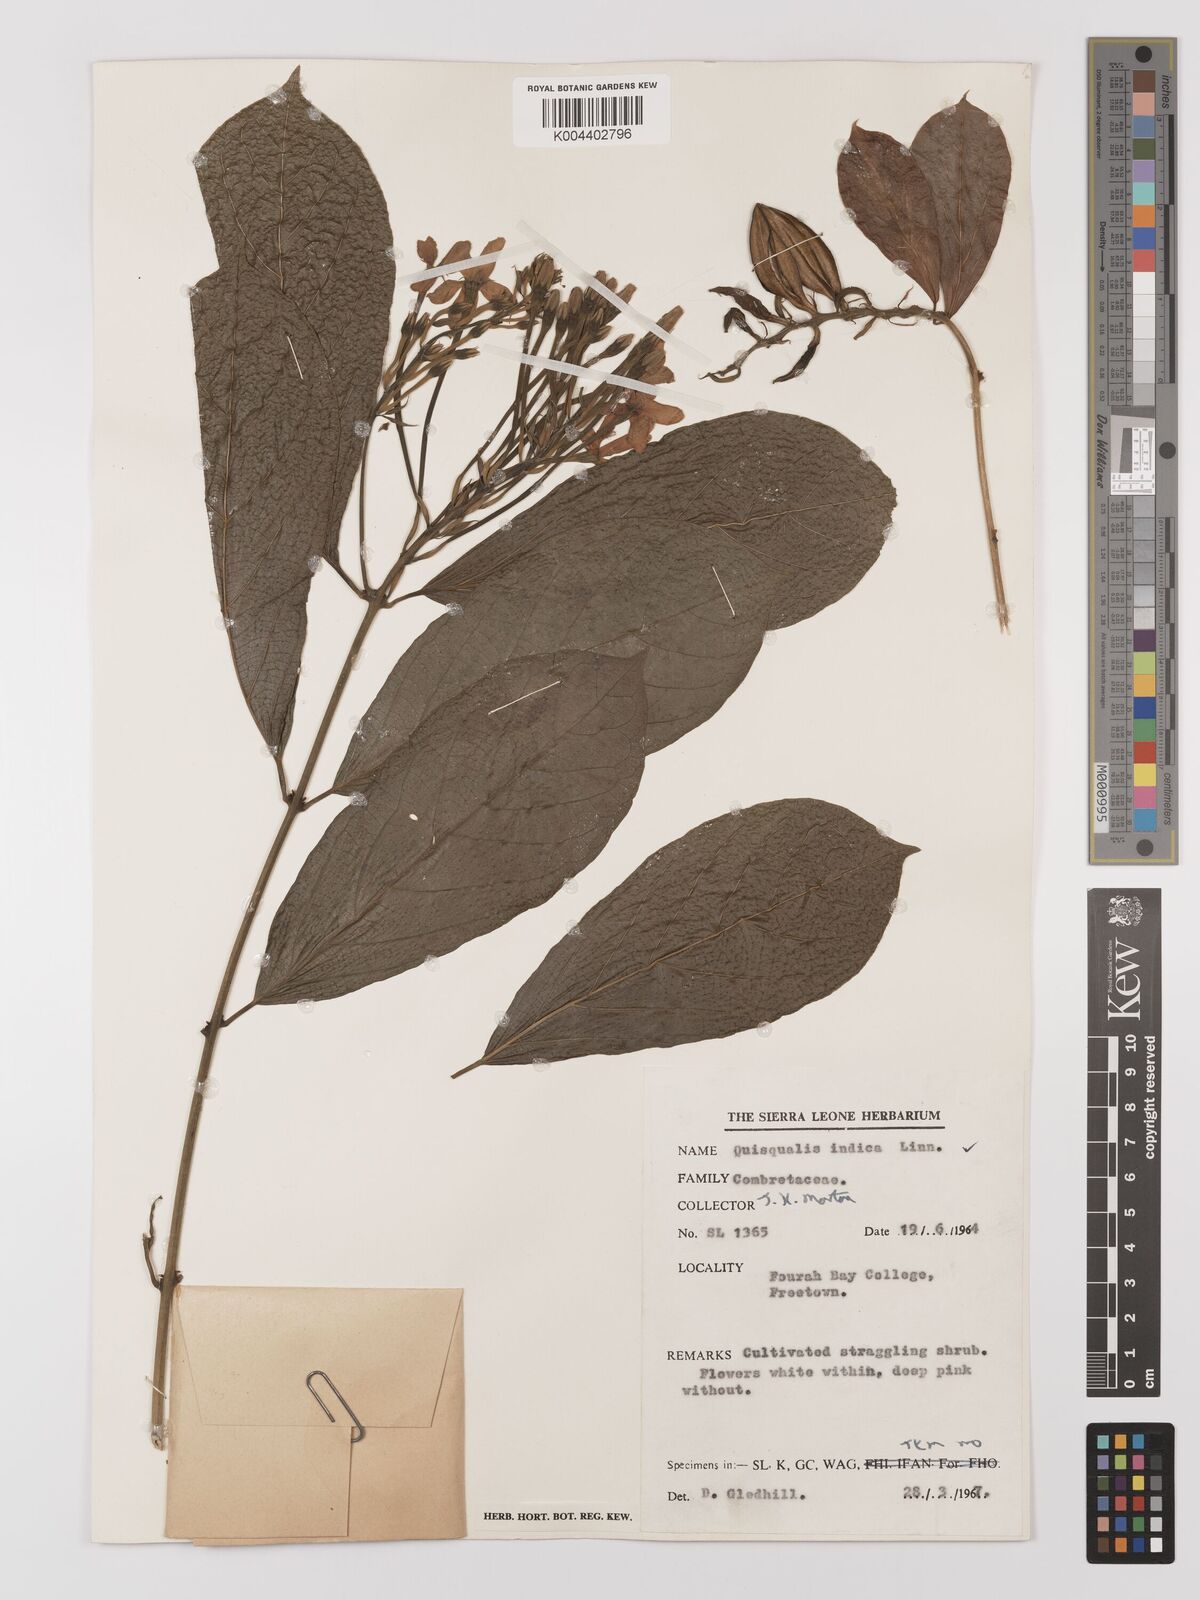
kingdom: Plantae
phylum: Tracheophyta
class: Magnoliopsida
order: Myrtales
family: Combretaceae
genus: Combretum
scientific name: Combretum
